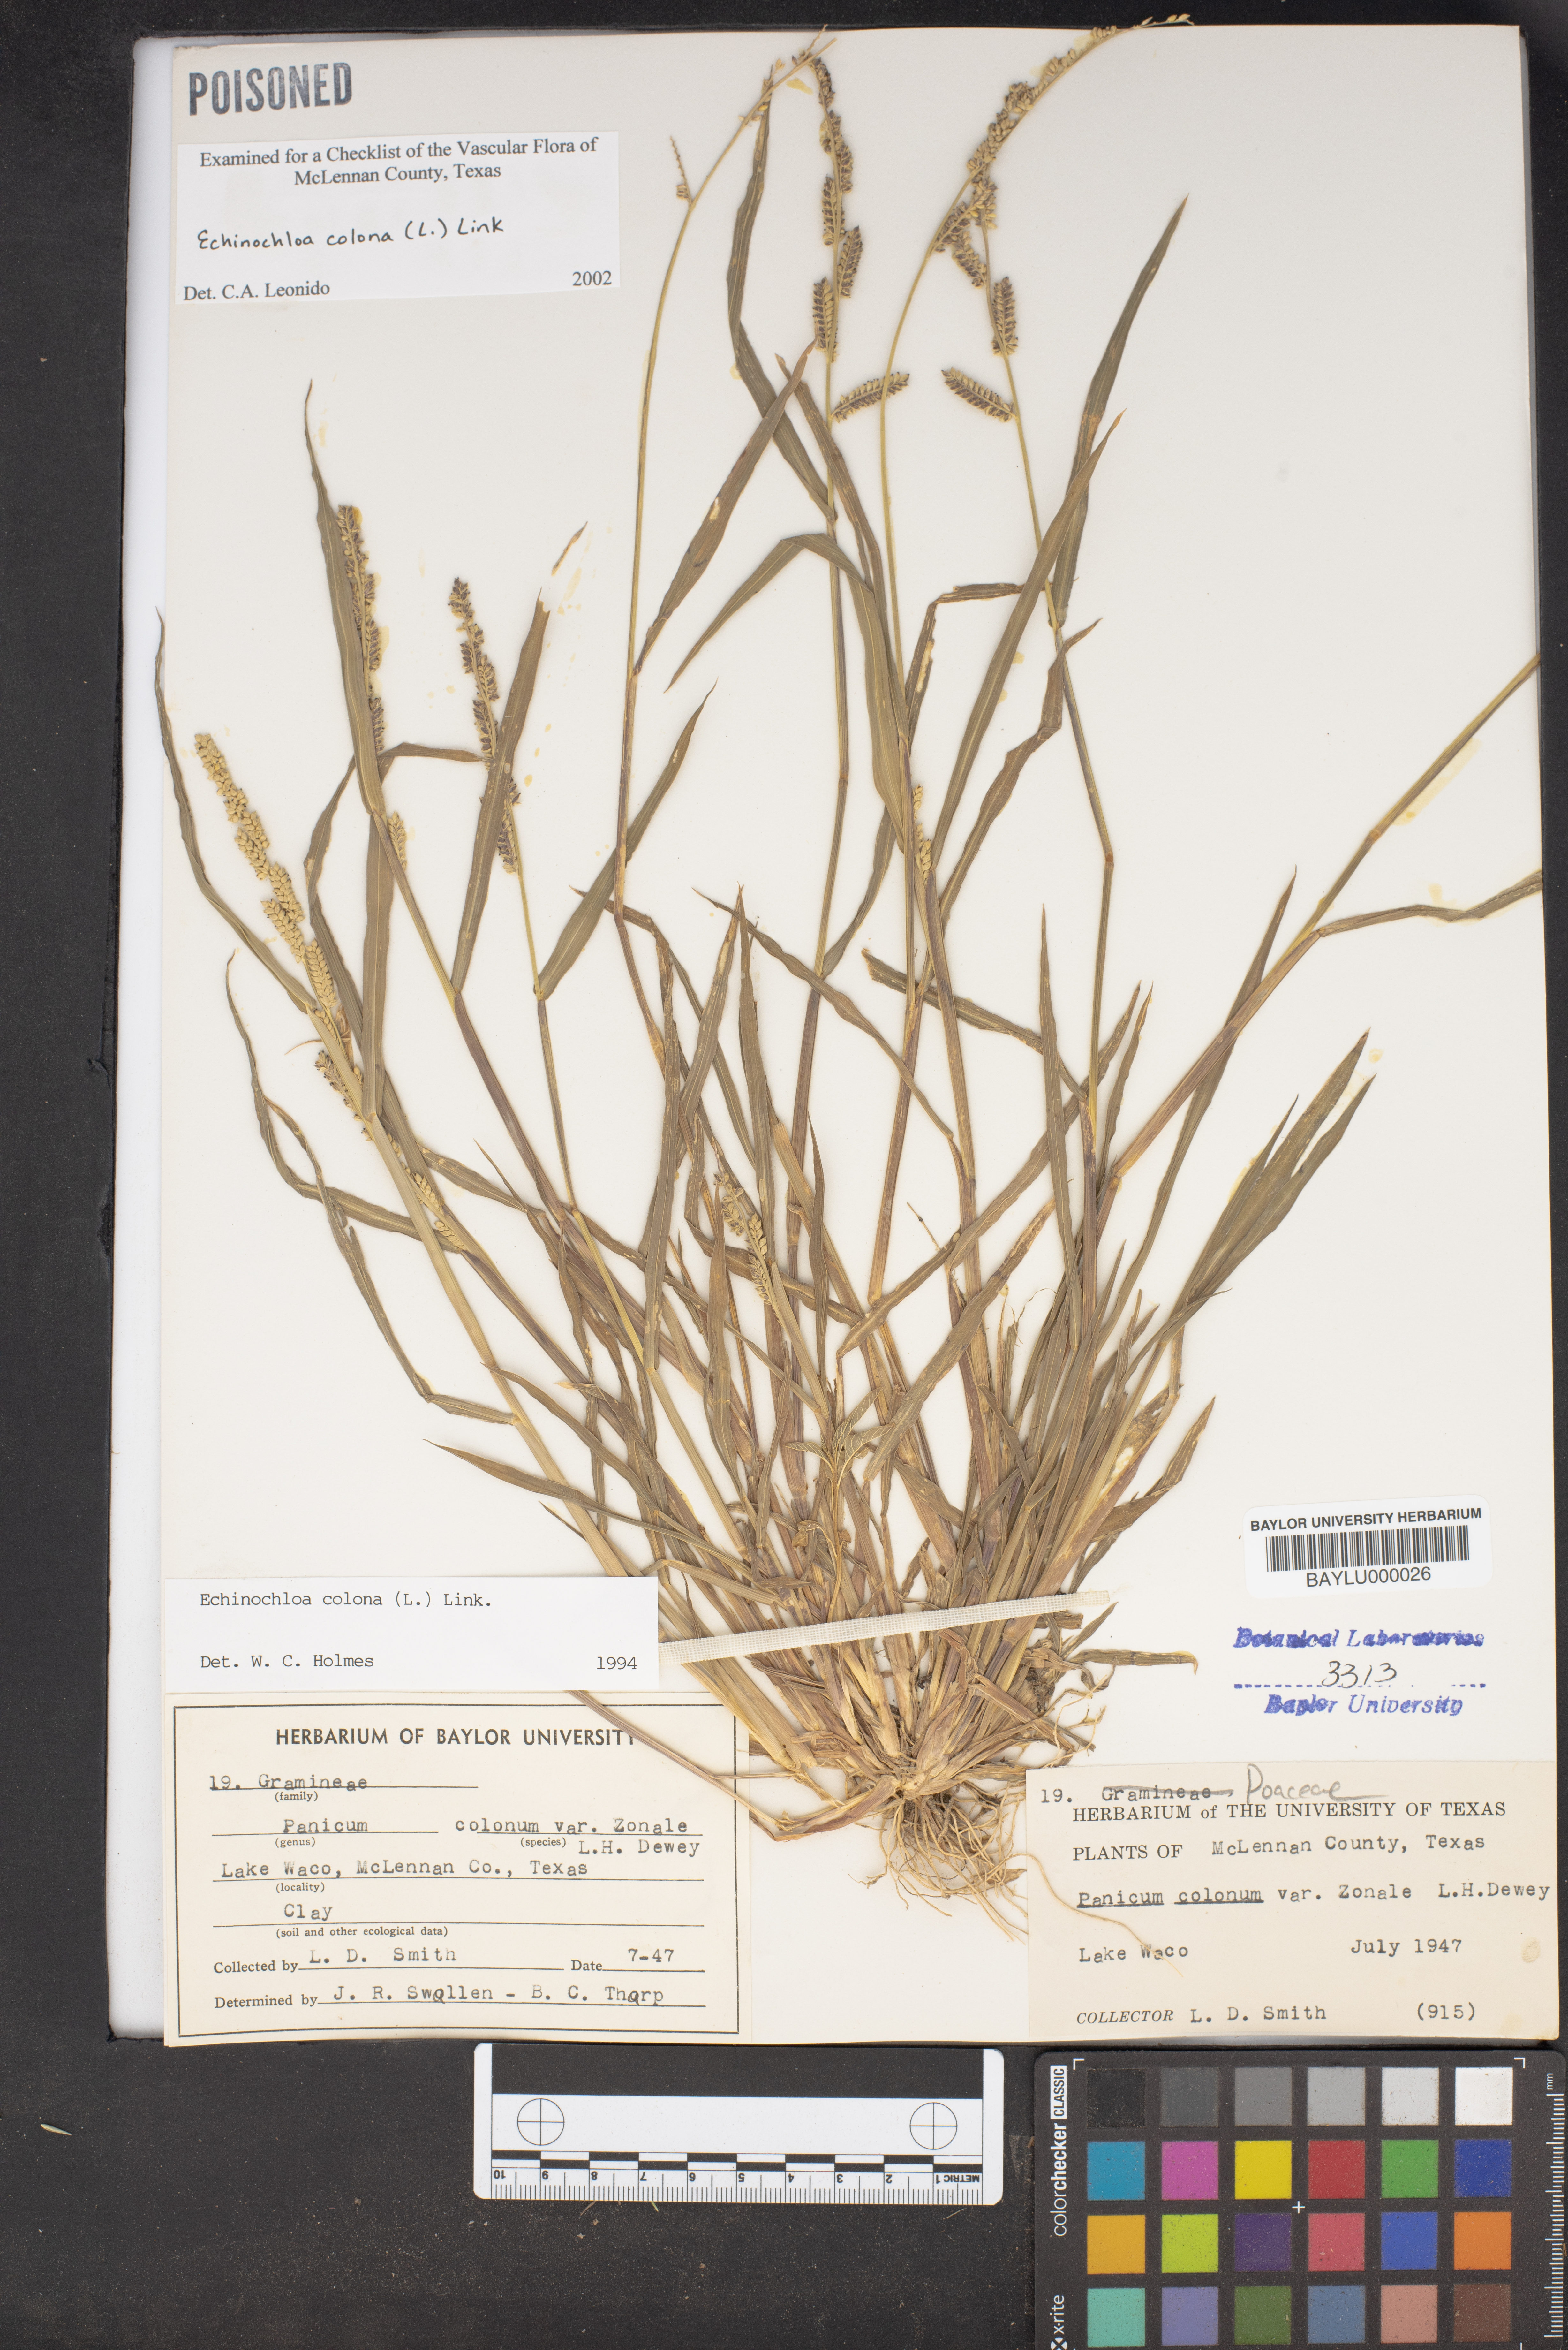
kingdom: Plantae
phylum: Tracheophyta
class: Liliopsida
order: Poales
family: Poaceae
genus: Echinochloa
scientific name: Echinochloa colonum
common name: Jungle rice
